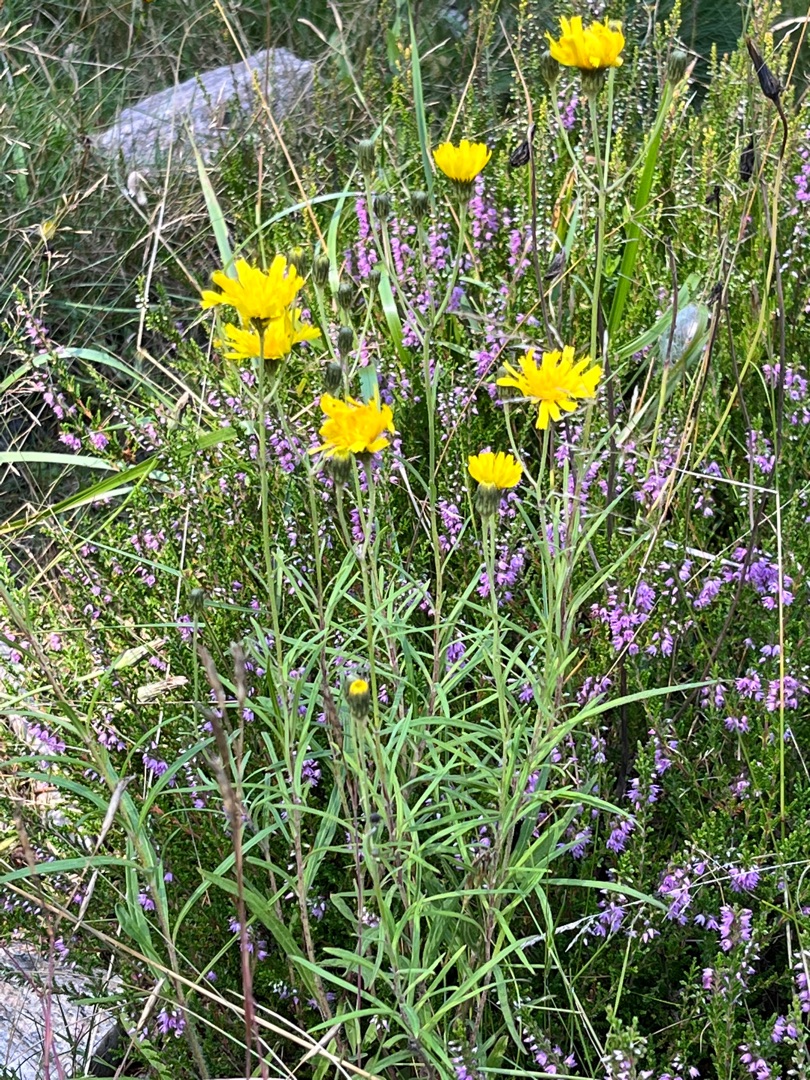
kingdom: Plantae
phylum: Tracheophyta
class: Magnoliopsida
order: Asterales
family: Asteraceae
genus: Hieracium
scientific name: Hieracium umbellatum
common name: Smalbladet høgeurt
